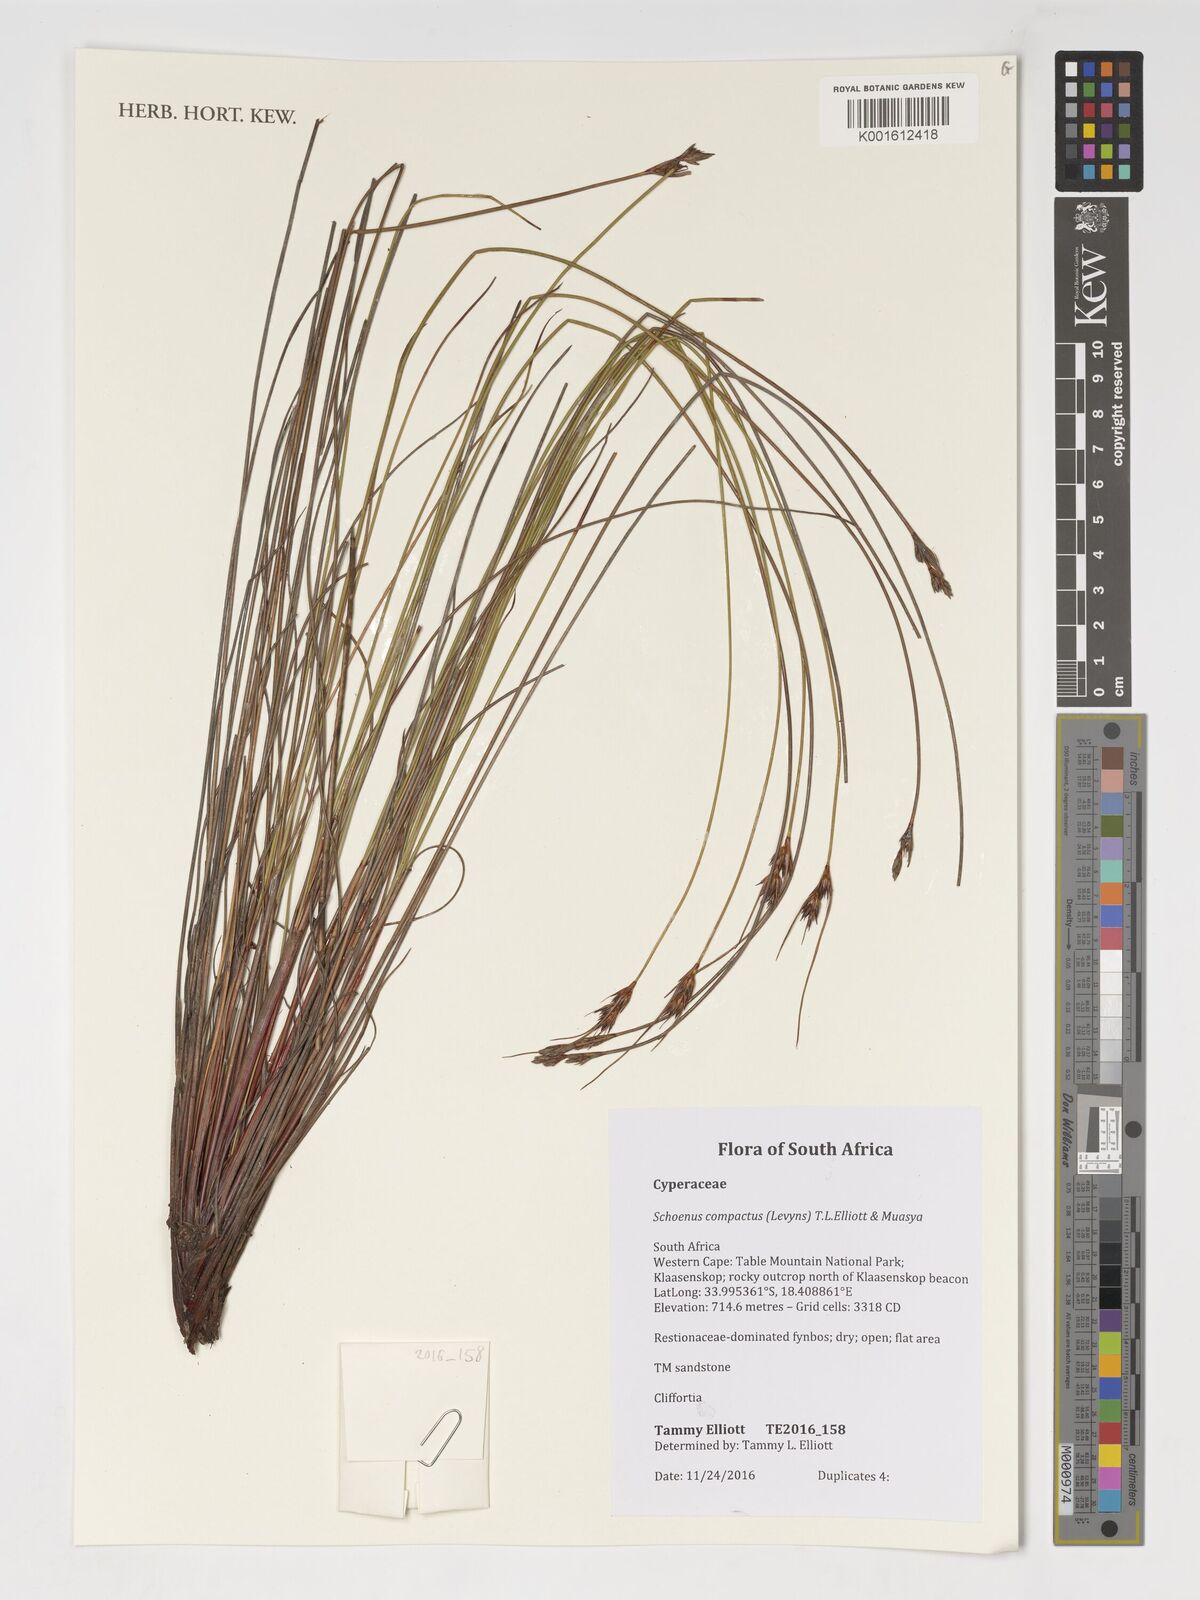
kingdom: Plantae
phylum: Tracheophyta
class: Liliopsida
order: Poales
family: Cyperaceae
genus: Schoenus
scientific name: Schoenus compactus
